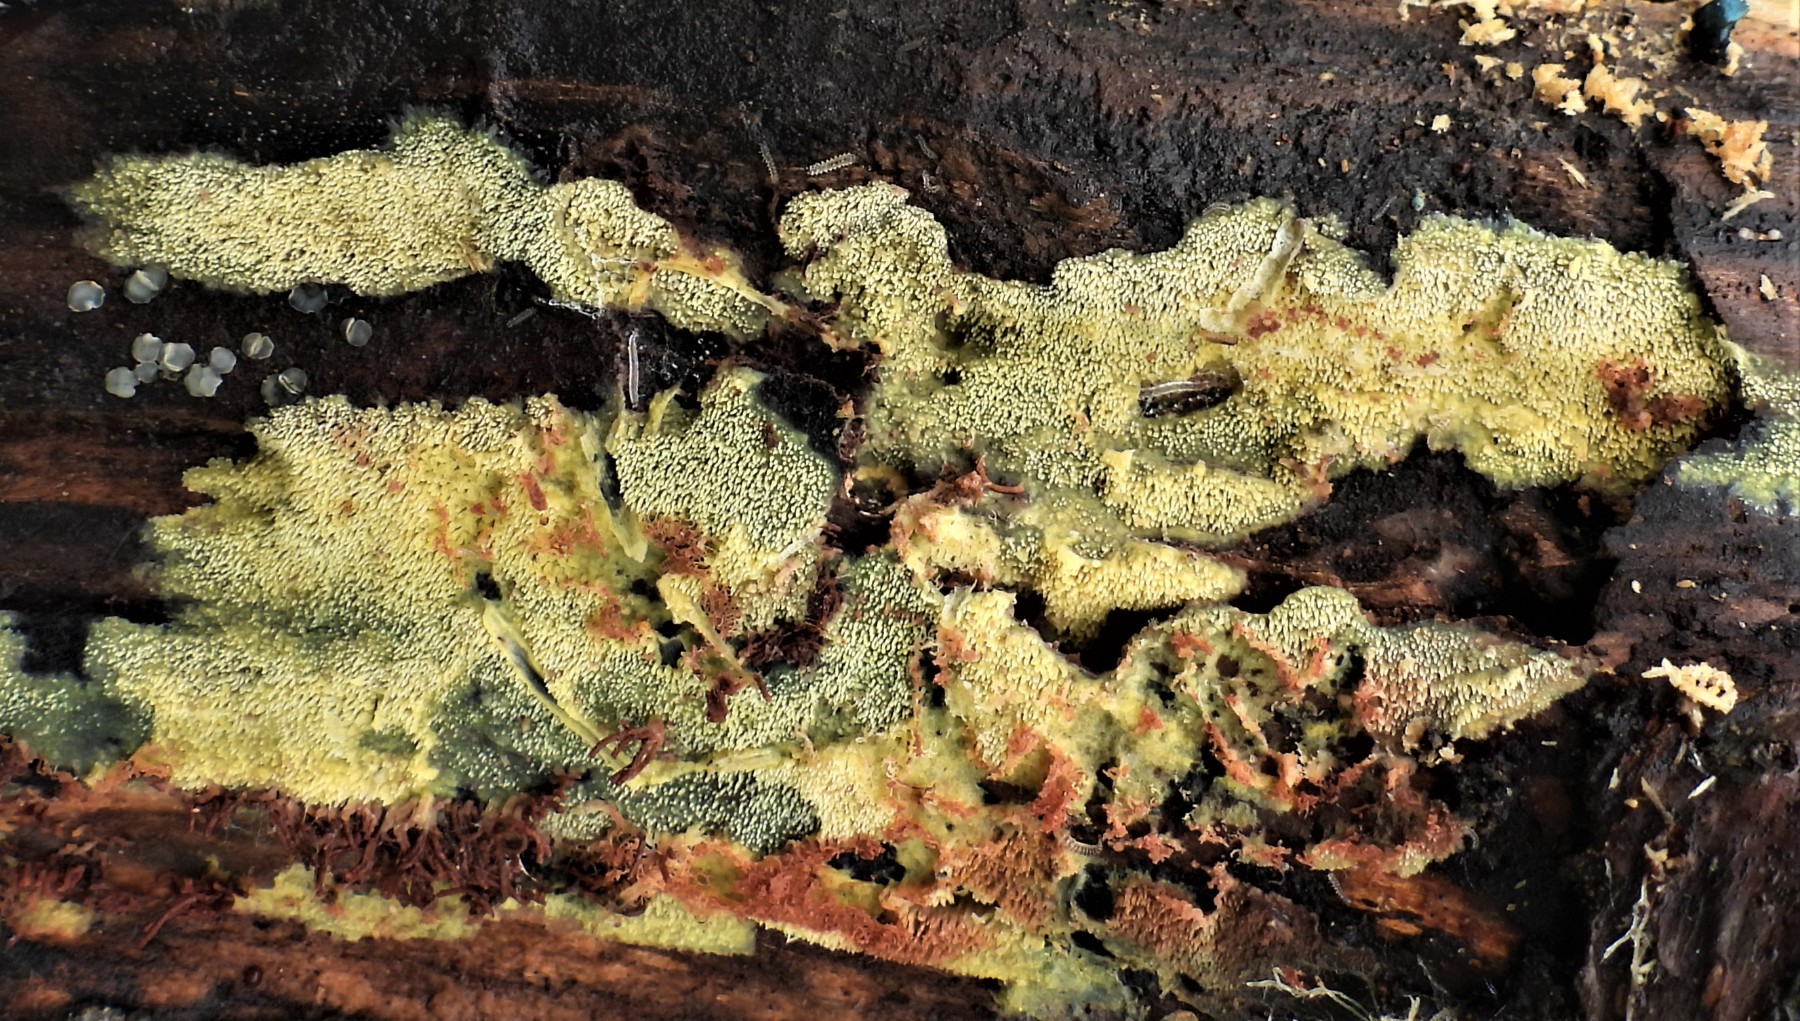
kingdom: Fungi
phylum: Basidiomycota
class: Agaricomycetes
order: Polyporales
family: Meruliaceae
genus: Mycoacia
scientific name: Mycoacia uda
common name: citrongul vokspig
